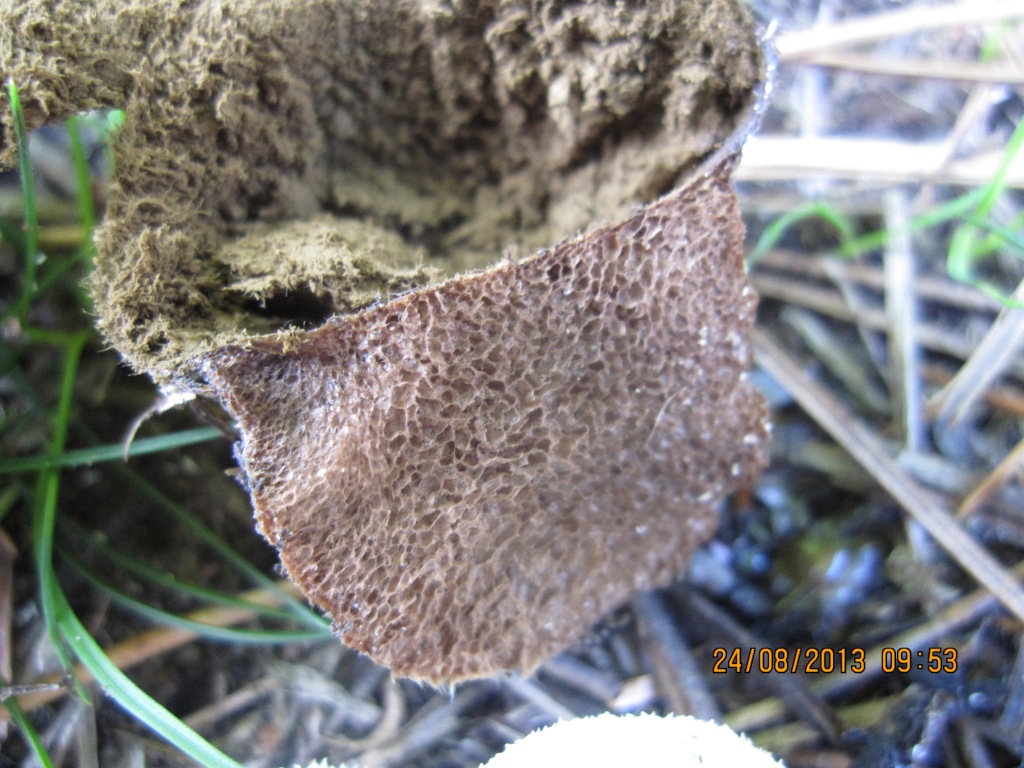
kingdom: Fungi
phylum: Basidiomycota
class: Agaricomycetes
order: Agaricales
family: Lycoperdaceae
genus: Lycoperdon
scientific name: Lycoperdon pratense
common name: flad støvbold
